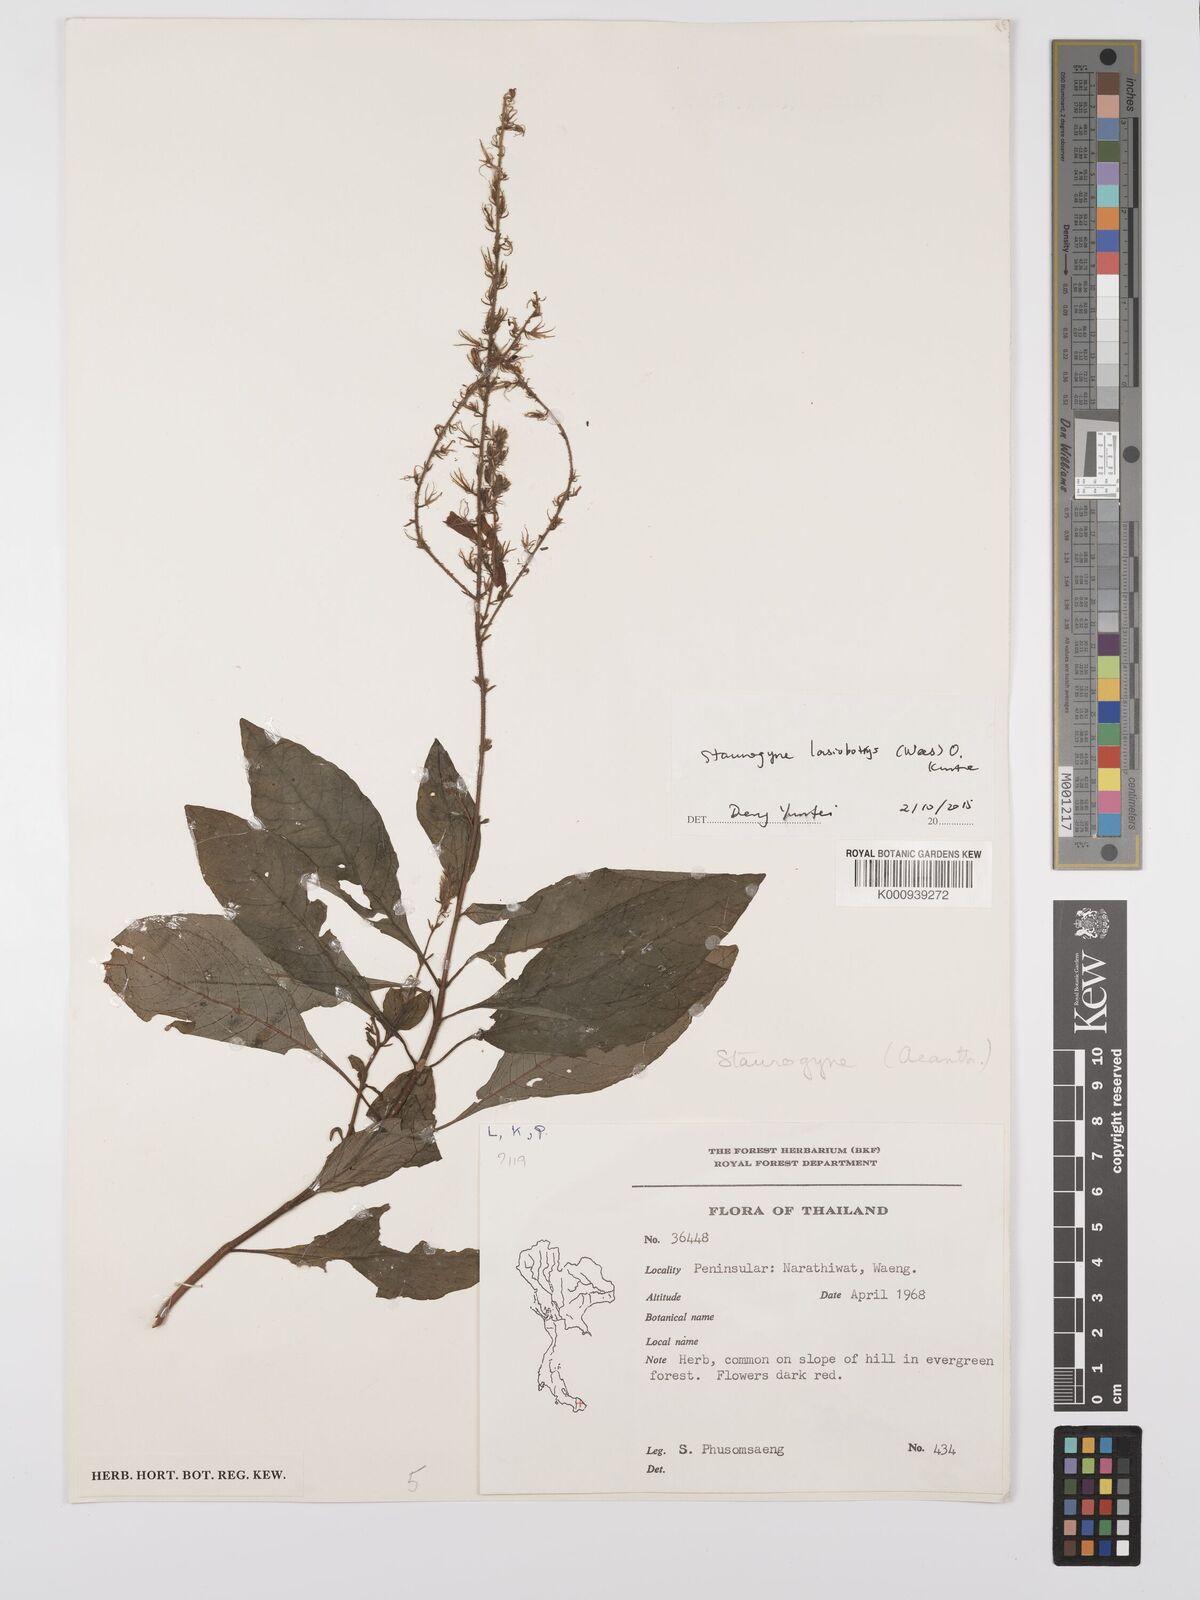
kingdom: Plantae
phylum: Tracheophyta
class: Magnoliopsida
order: Lamiales
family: Acanthaceae
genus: Staurogyne
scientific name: Staurogyne lasiobotrys
